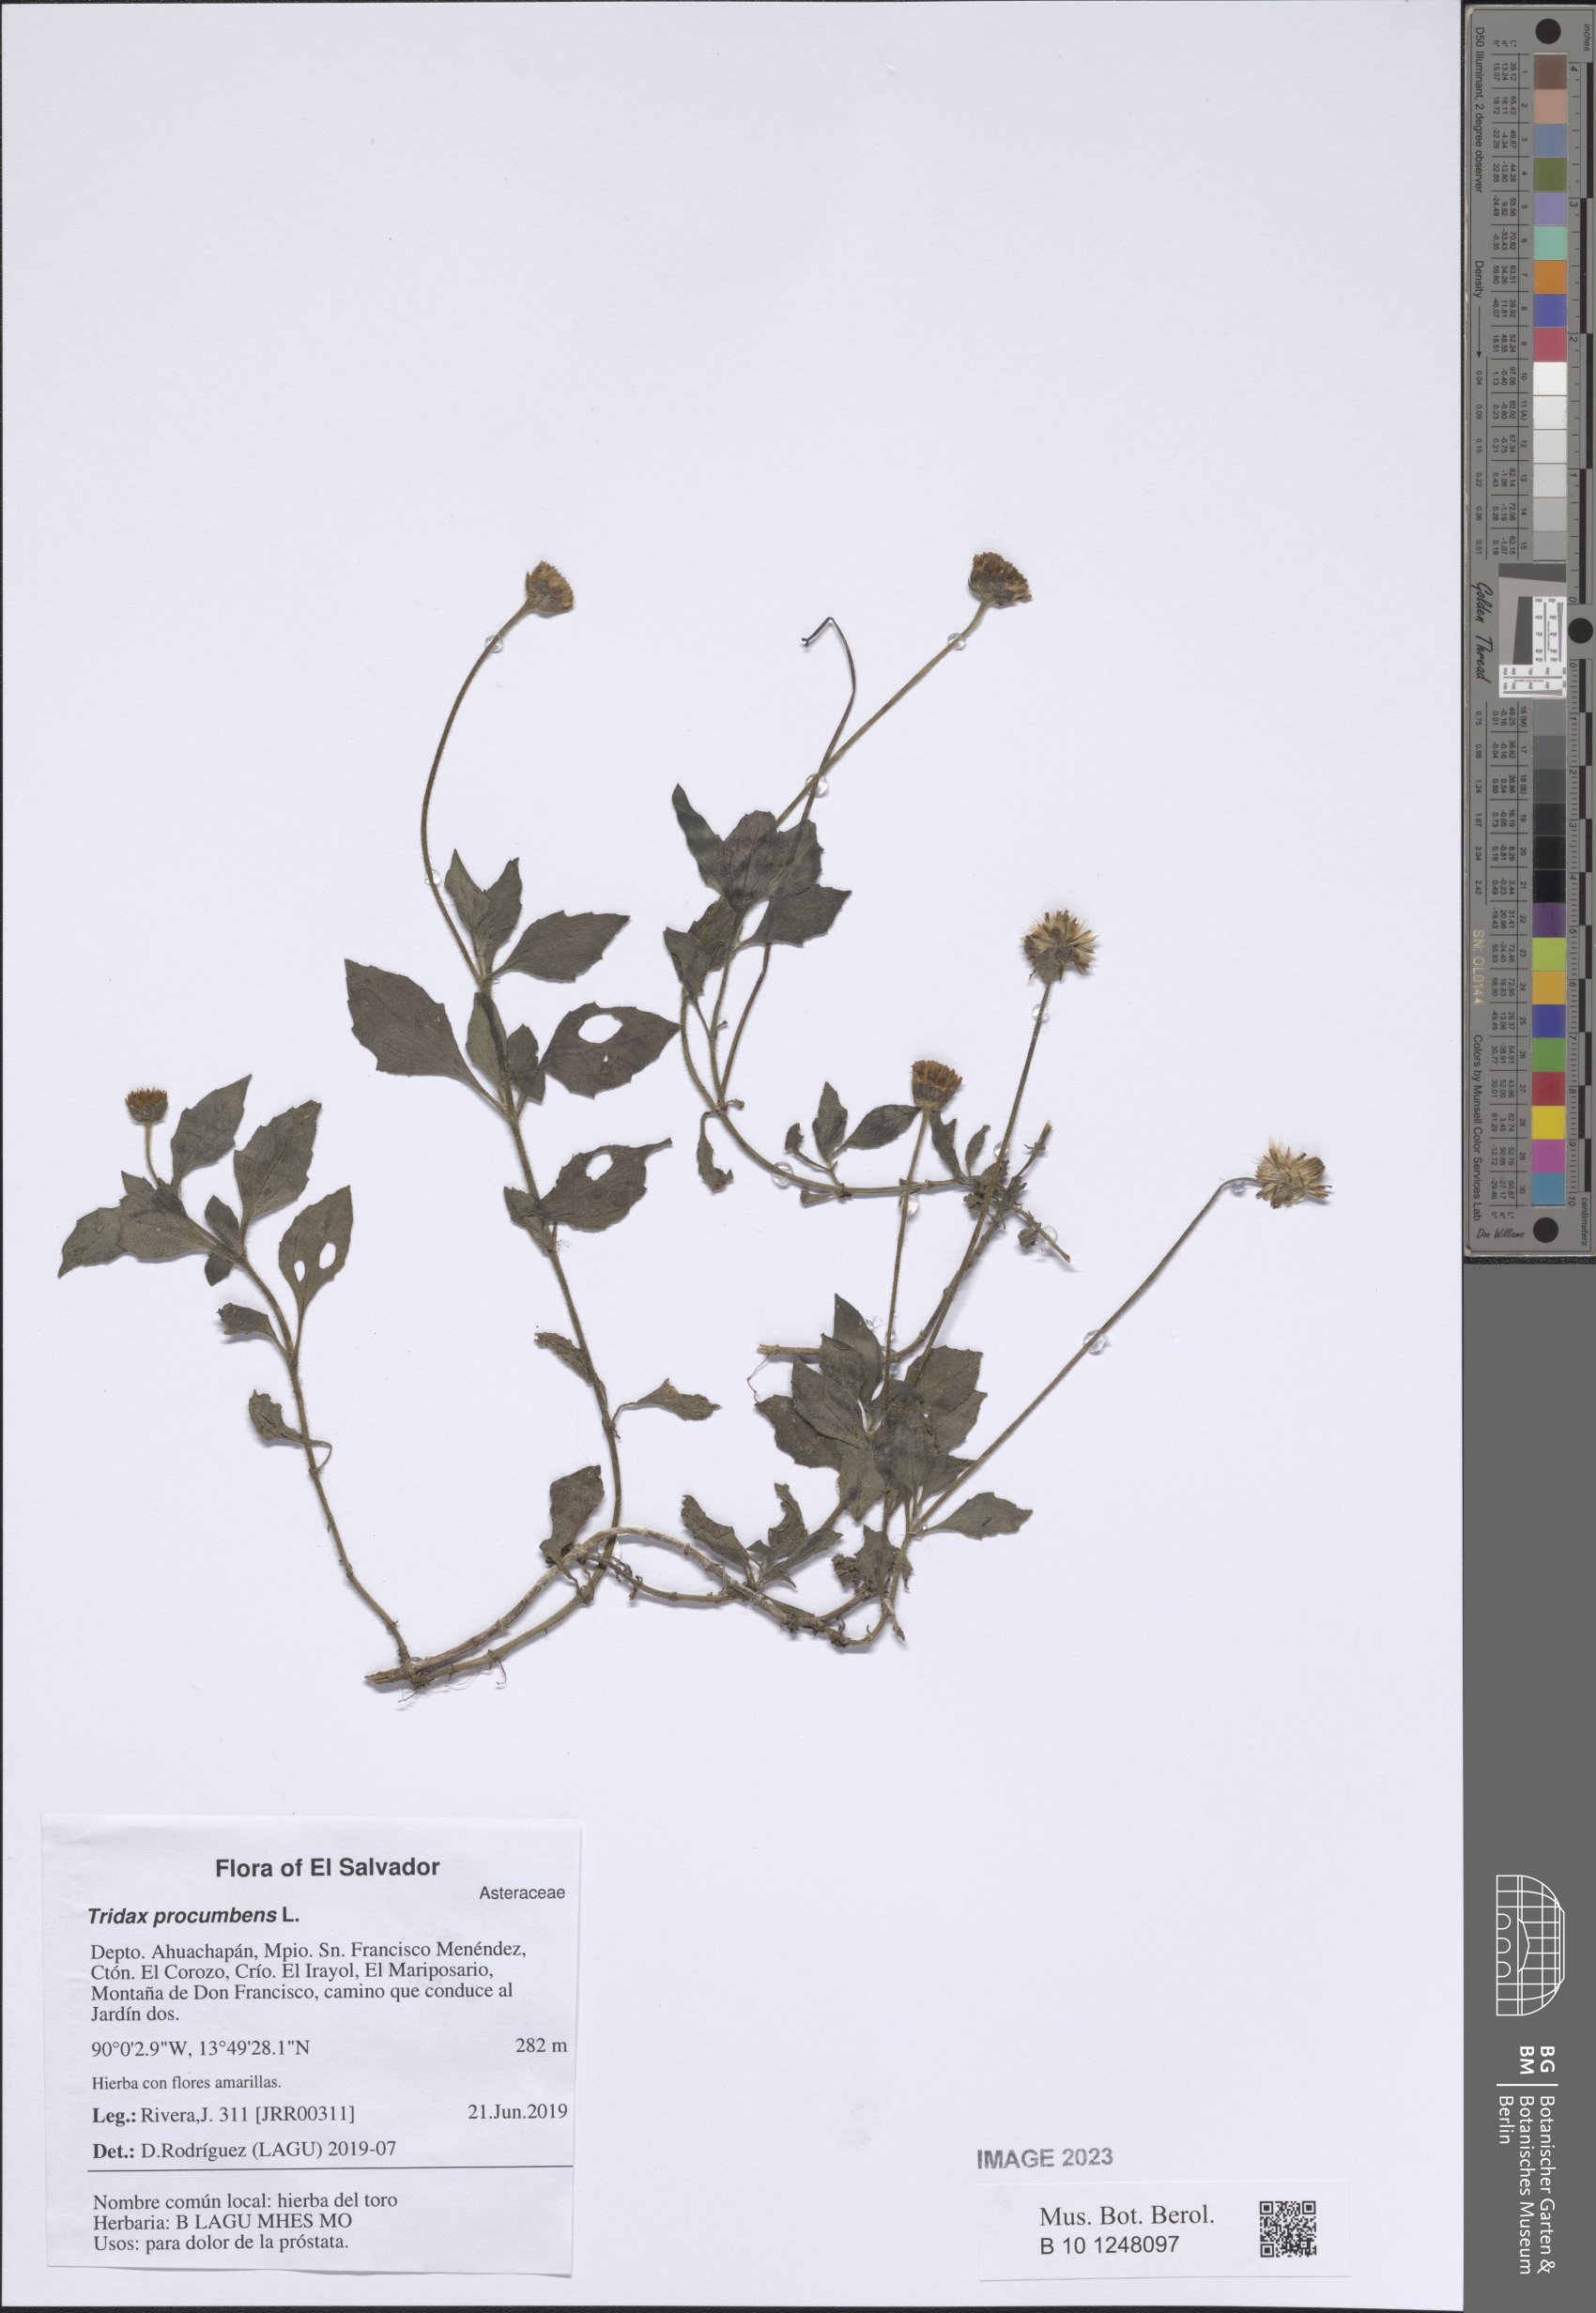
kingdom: Plantae
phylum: Tracheophyta
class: Magnoliopsida
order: Asterales
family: Asteraceae
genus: Tridax
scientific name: Tridax procumbens
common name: Coatbuttons
